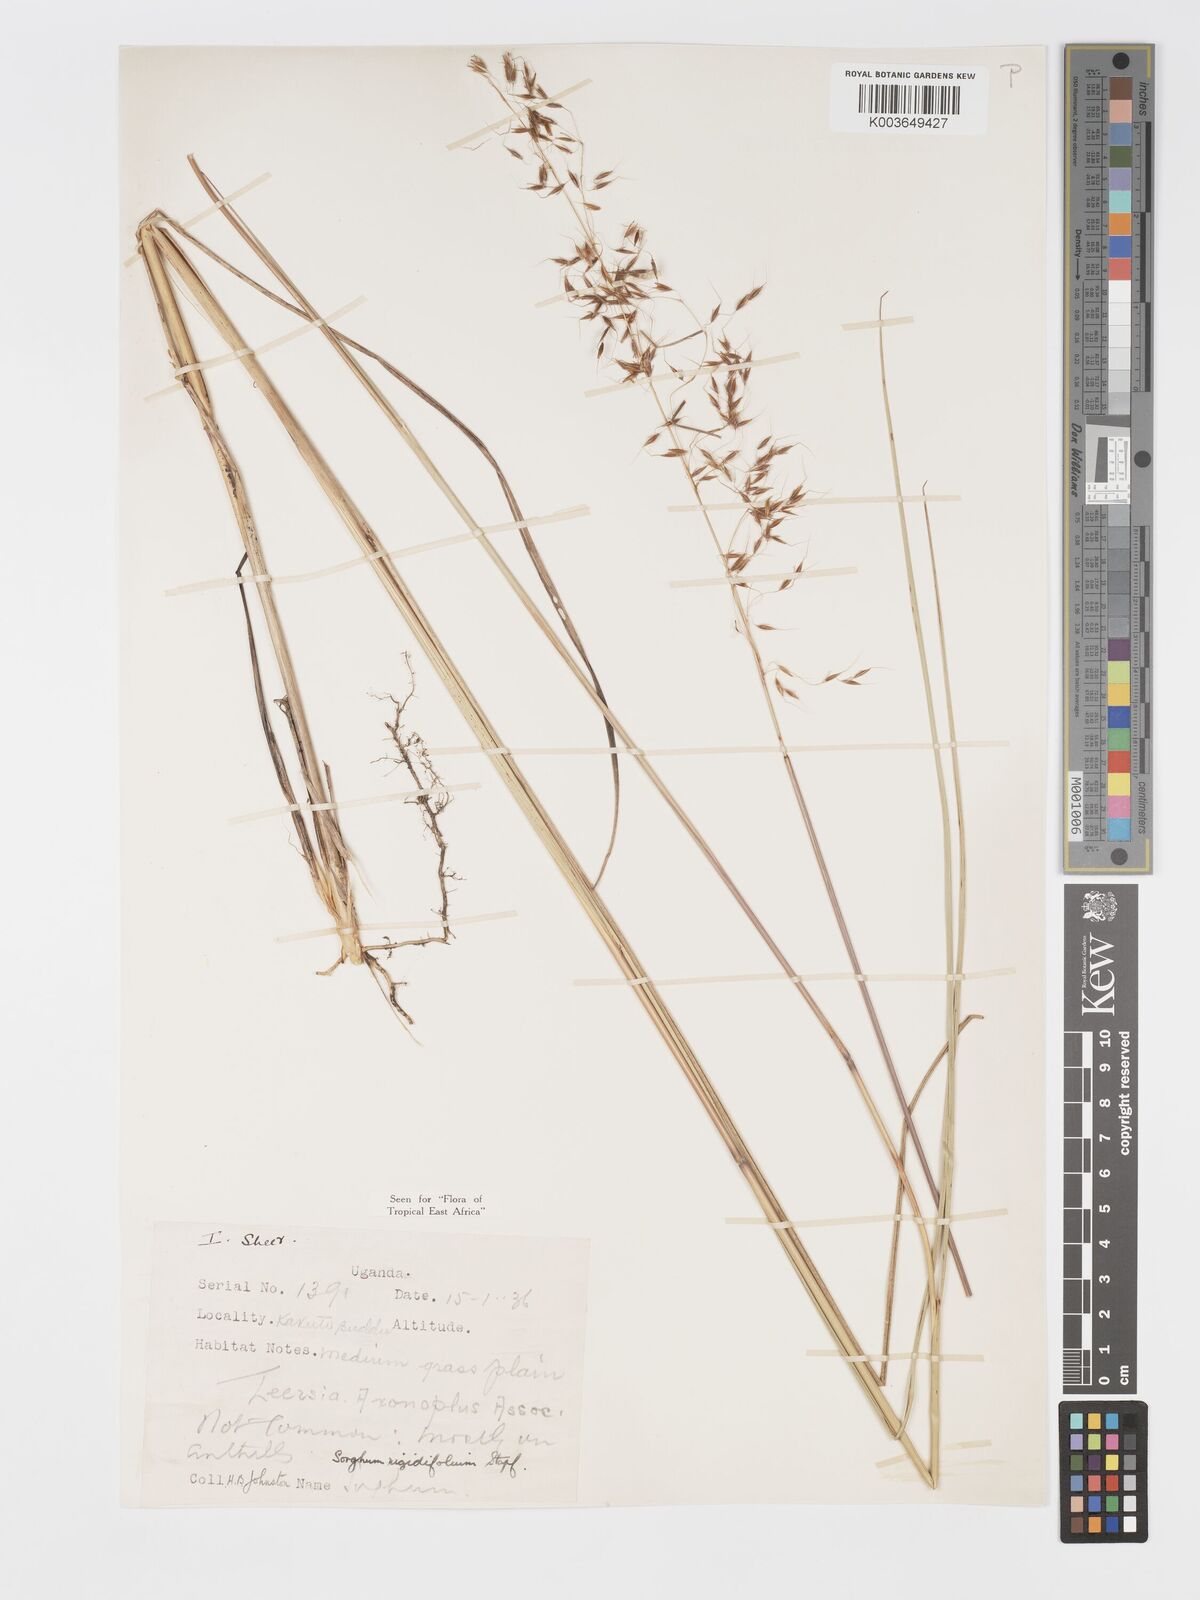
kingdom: Plantae
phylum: Tracheophyta
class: Liliopsida
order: Poales
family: Poaceae
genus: Sorghastrum
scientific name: Sorghastrum stipoides
